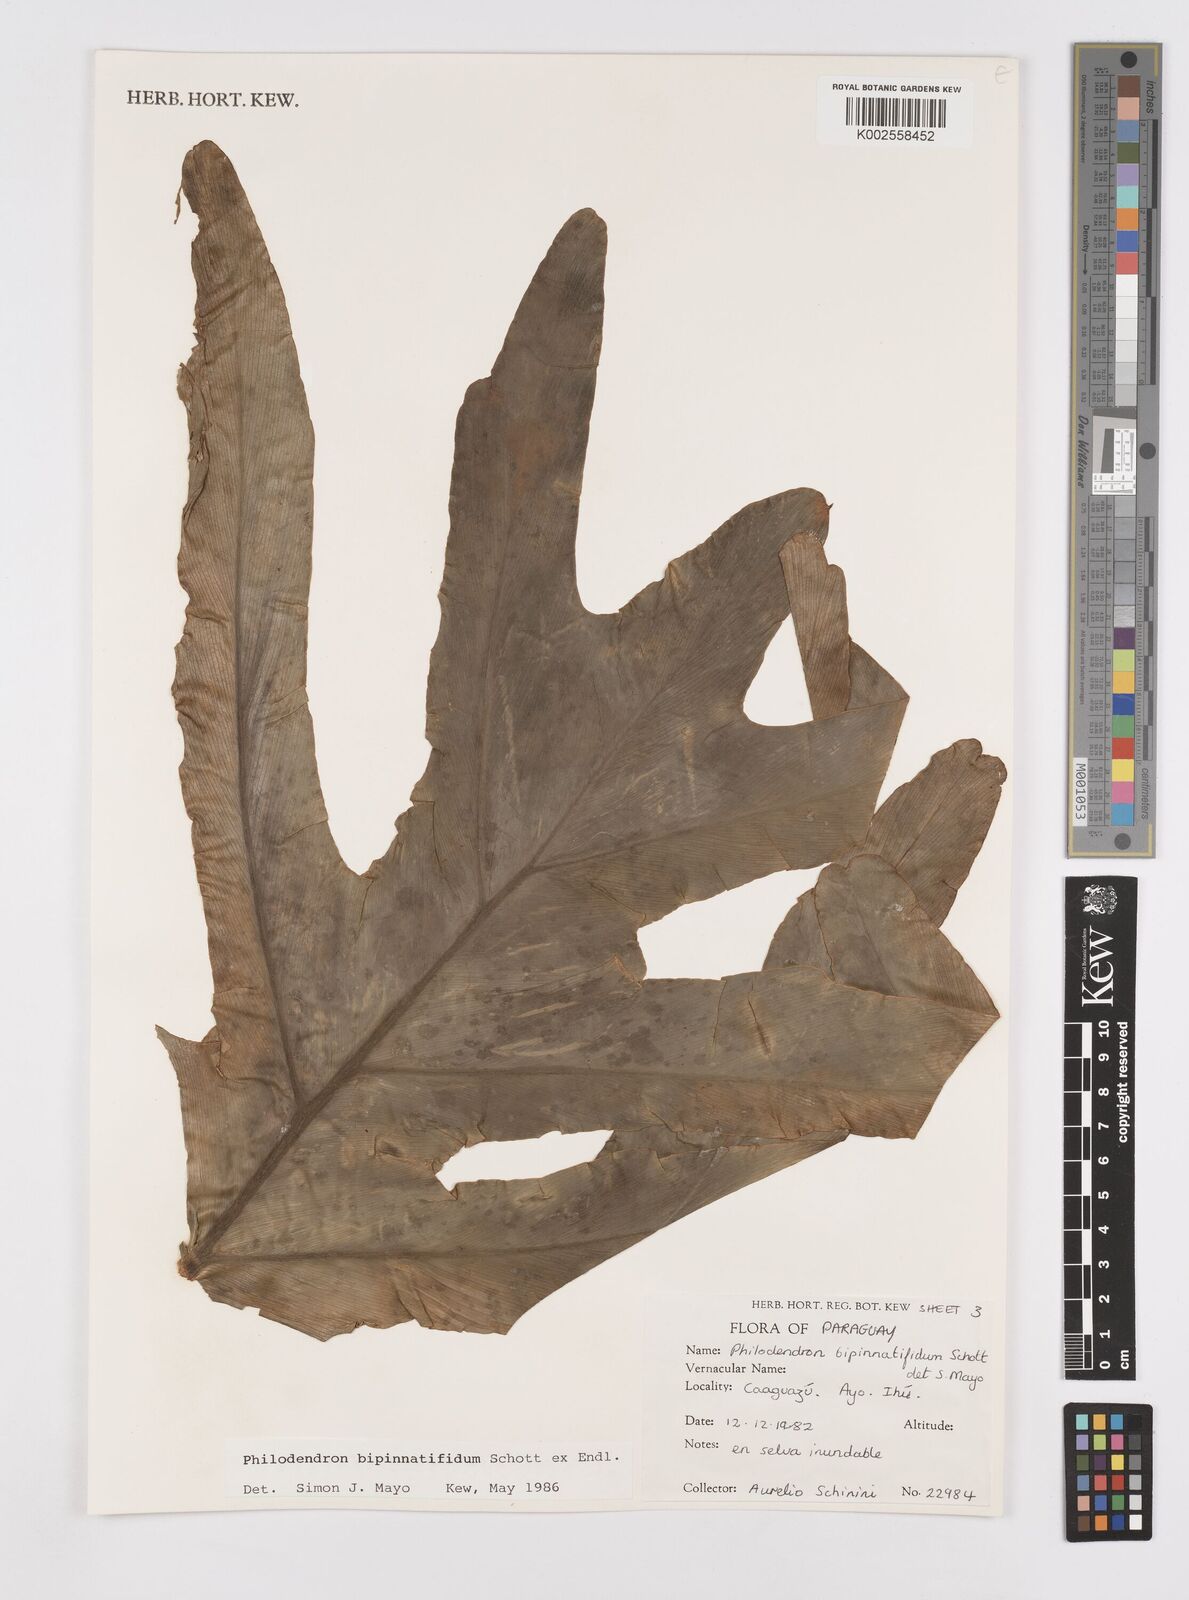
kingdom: Plantae
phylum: Tracheophyta
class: Liliopsida
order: Alismatales
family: Araceae
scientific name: Araceae
